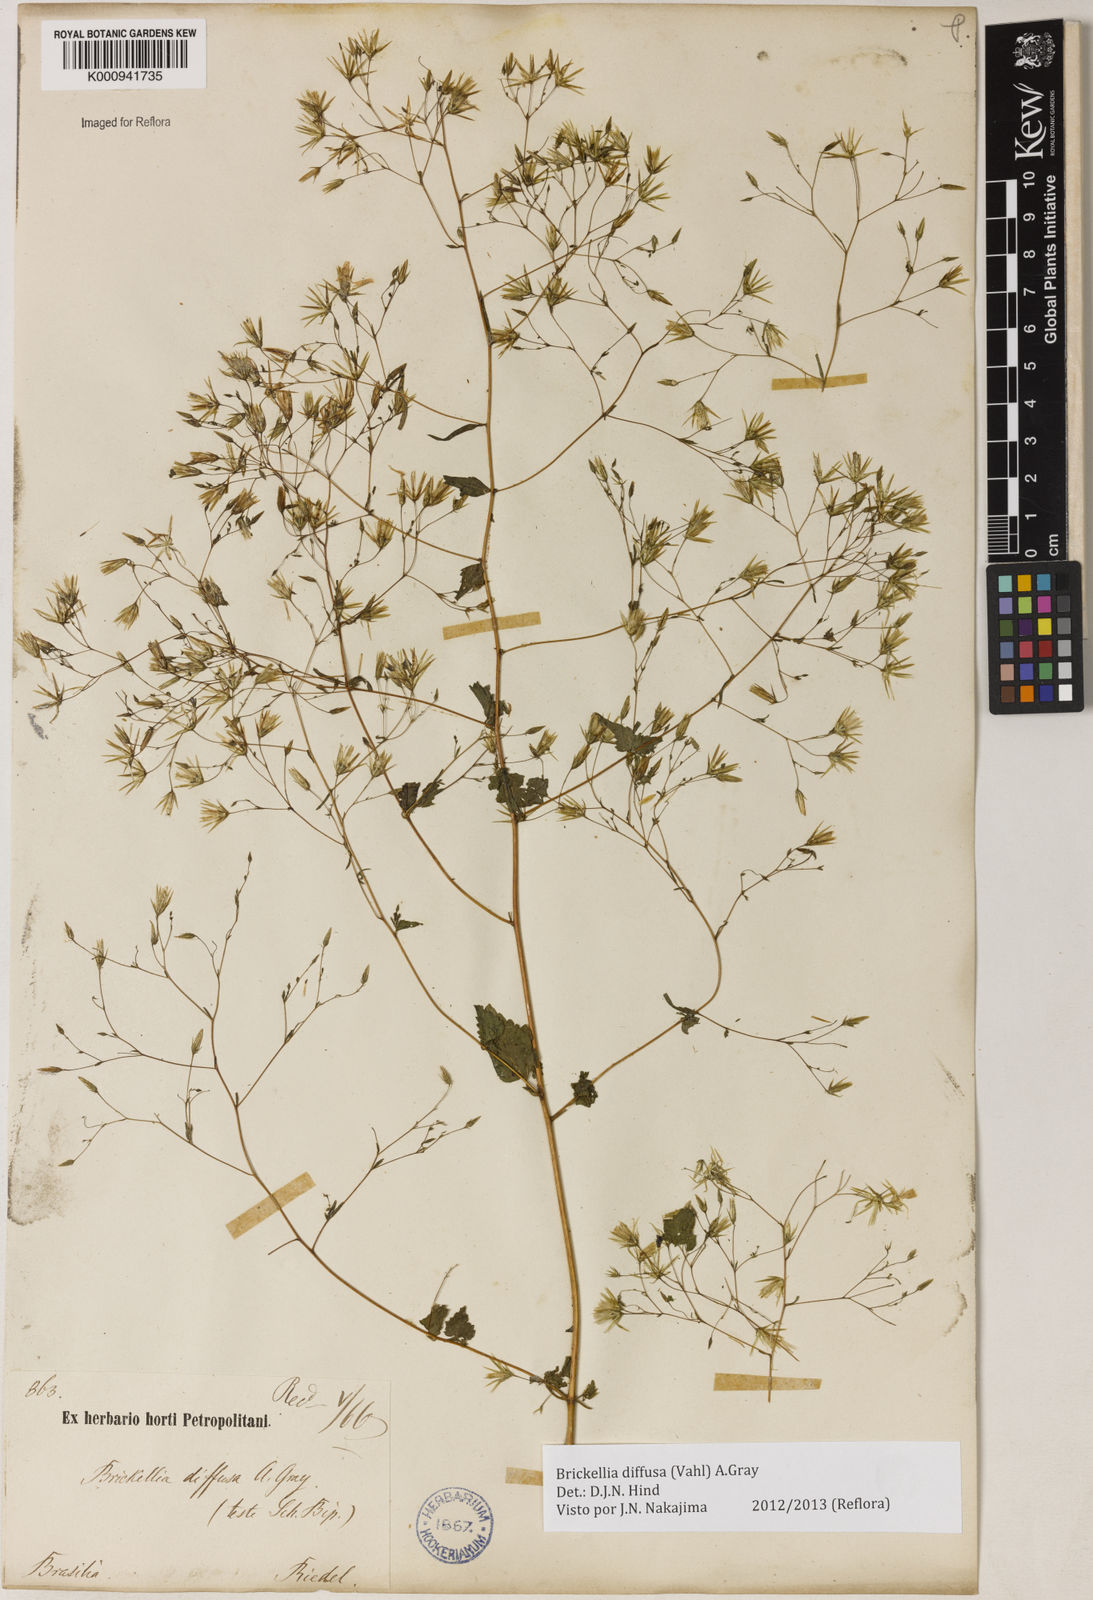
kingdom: Plantae
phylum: Tracheophyta
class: Magnoliopsida
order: Asterales
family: Asteraceae
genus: Brickellia
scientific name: Brickellia diffusa
